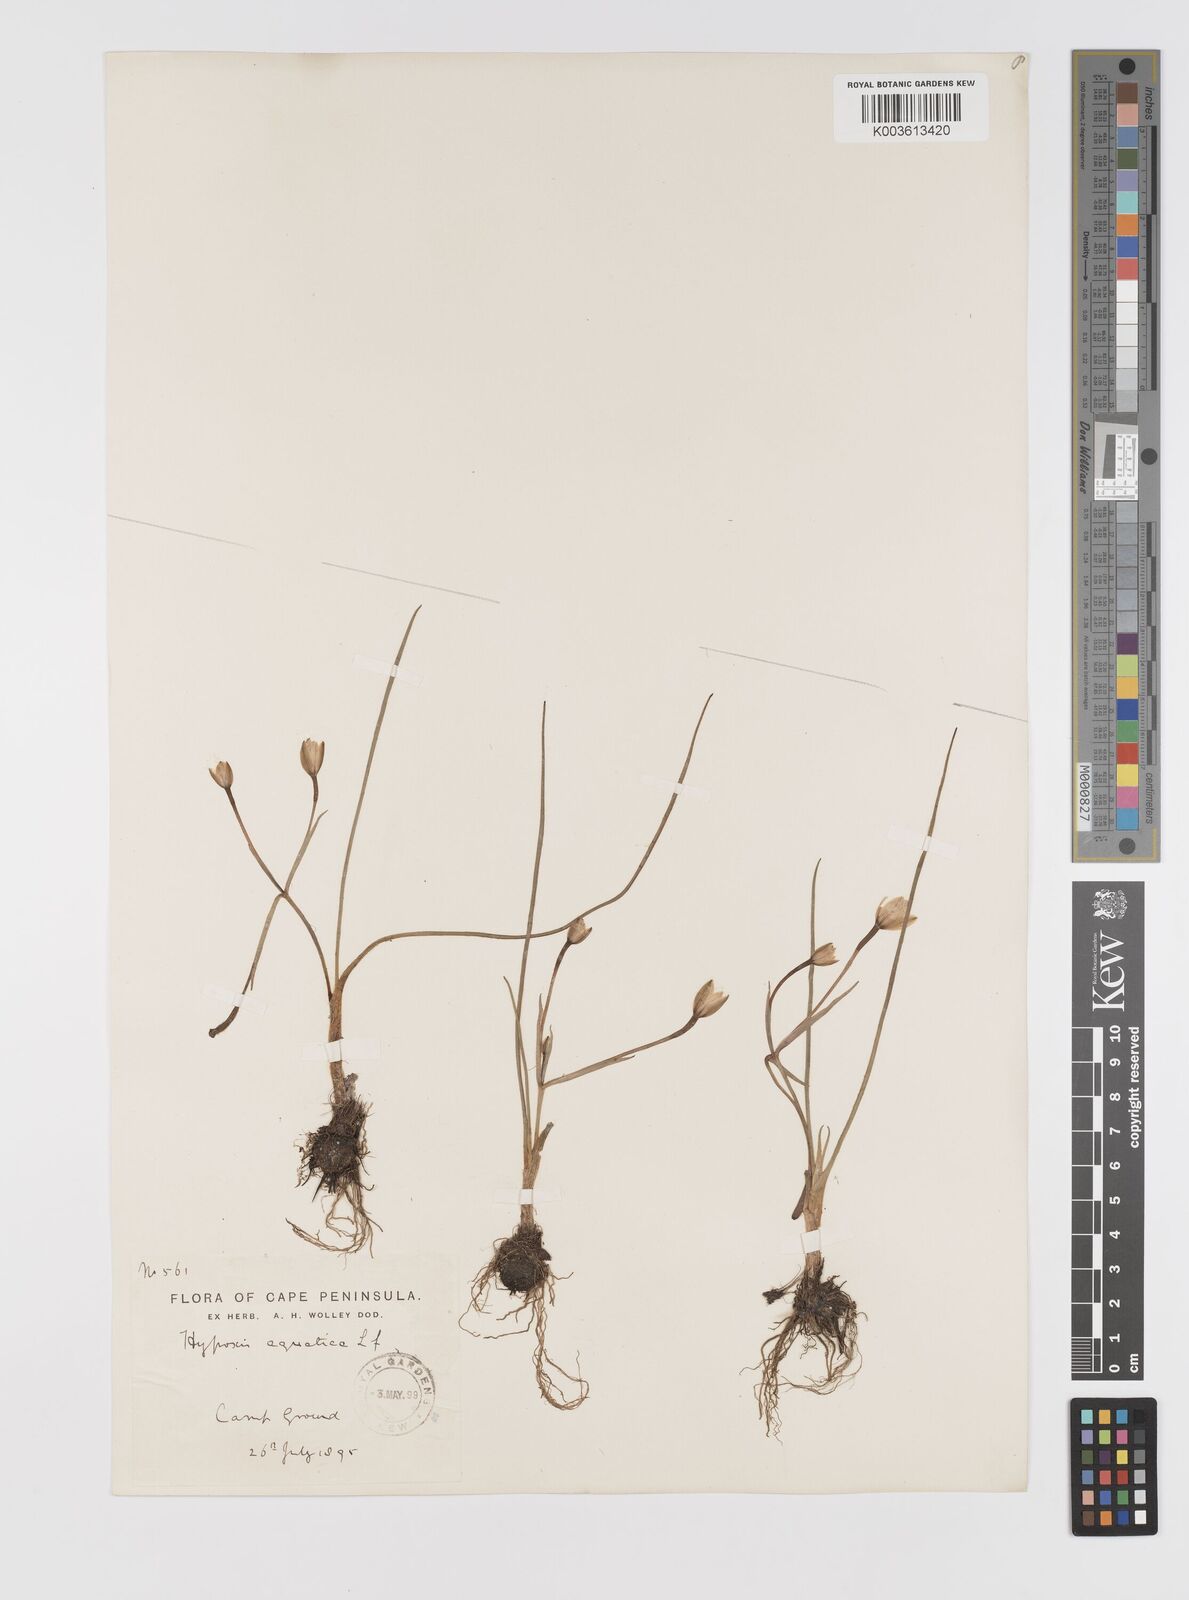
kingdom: Plantae
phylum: Tracheophyta
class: Liliopsida
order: Asparagales
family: Hypoxidaceae
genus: Pauridia
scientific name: Pauridia aquatica
